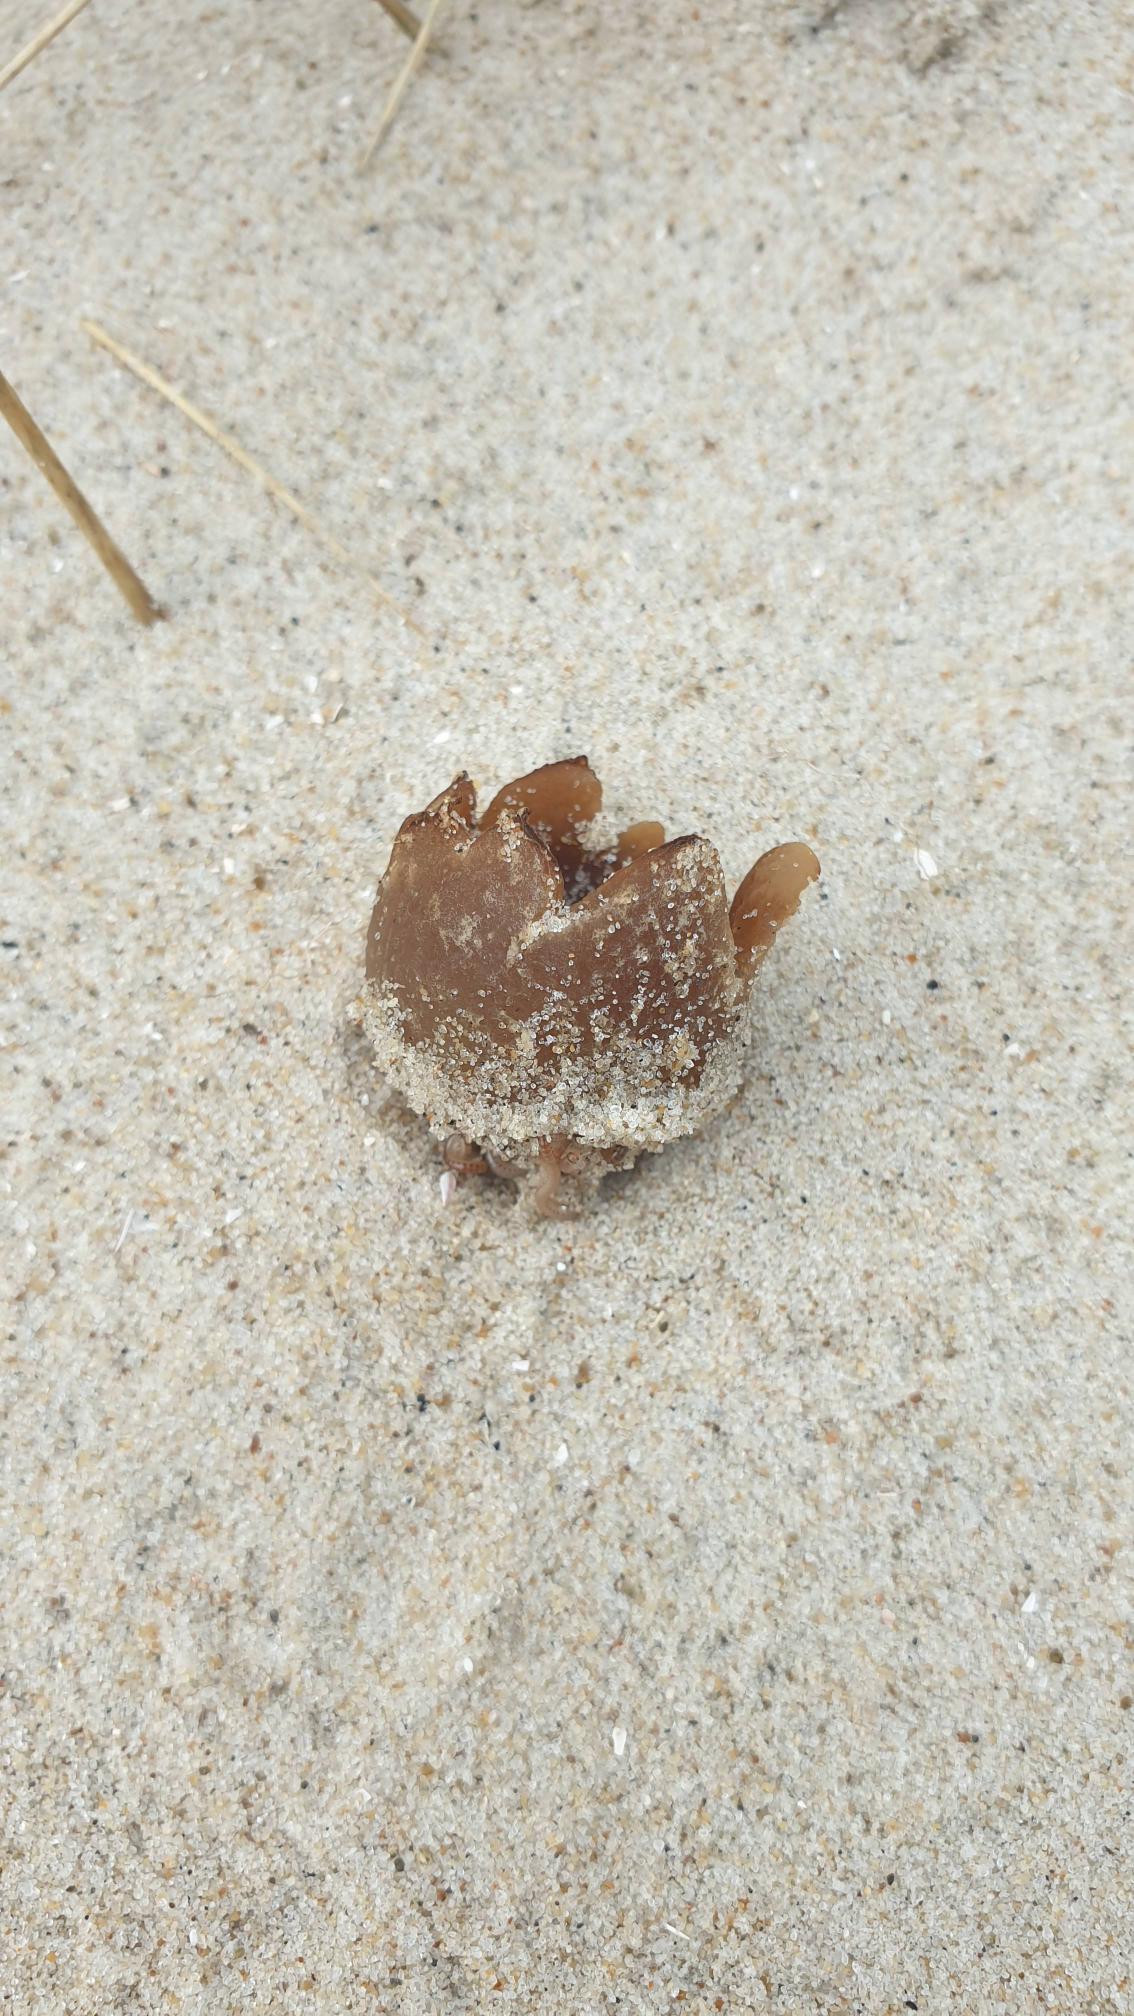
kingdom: Fungi
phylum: Ascomycota
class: Pezizomycetes
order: Pezizales
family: Pyronemataceae
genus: Lamprospora
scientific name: Lamprospora ammophila
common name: Klit-bægersvamp
